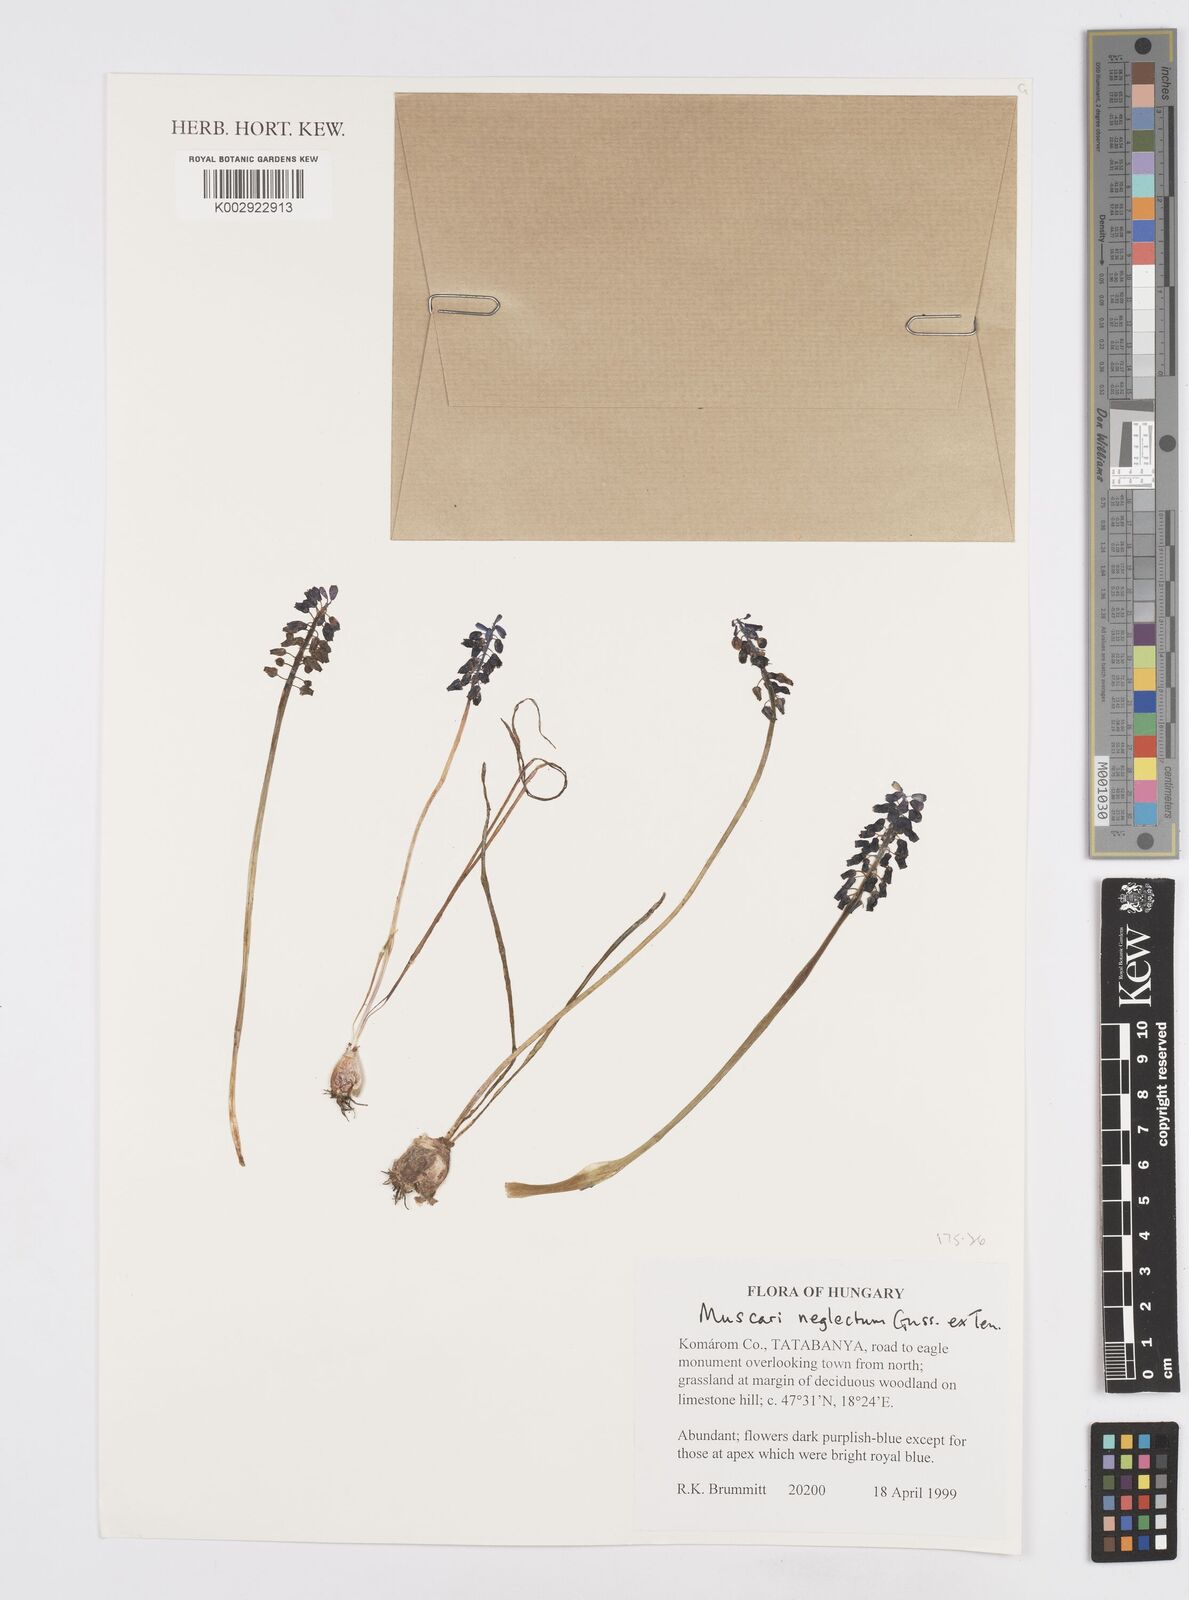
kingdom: Plantae
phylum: Tracheophyta
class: Liliopsida
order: Asparagales
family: Asparagaceae
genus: Muscarimia
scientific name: Muscarimia muscari
